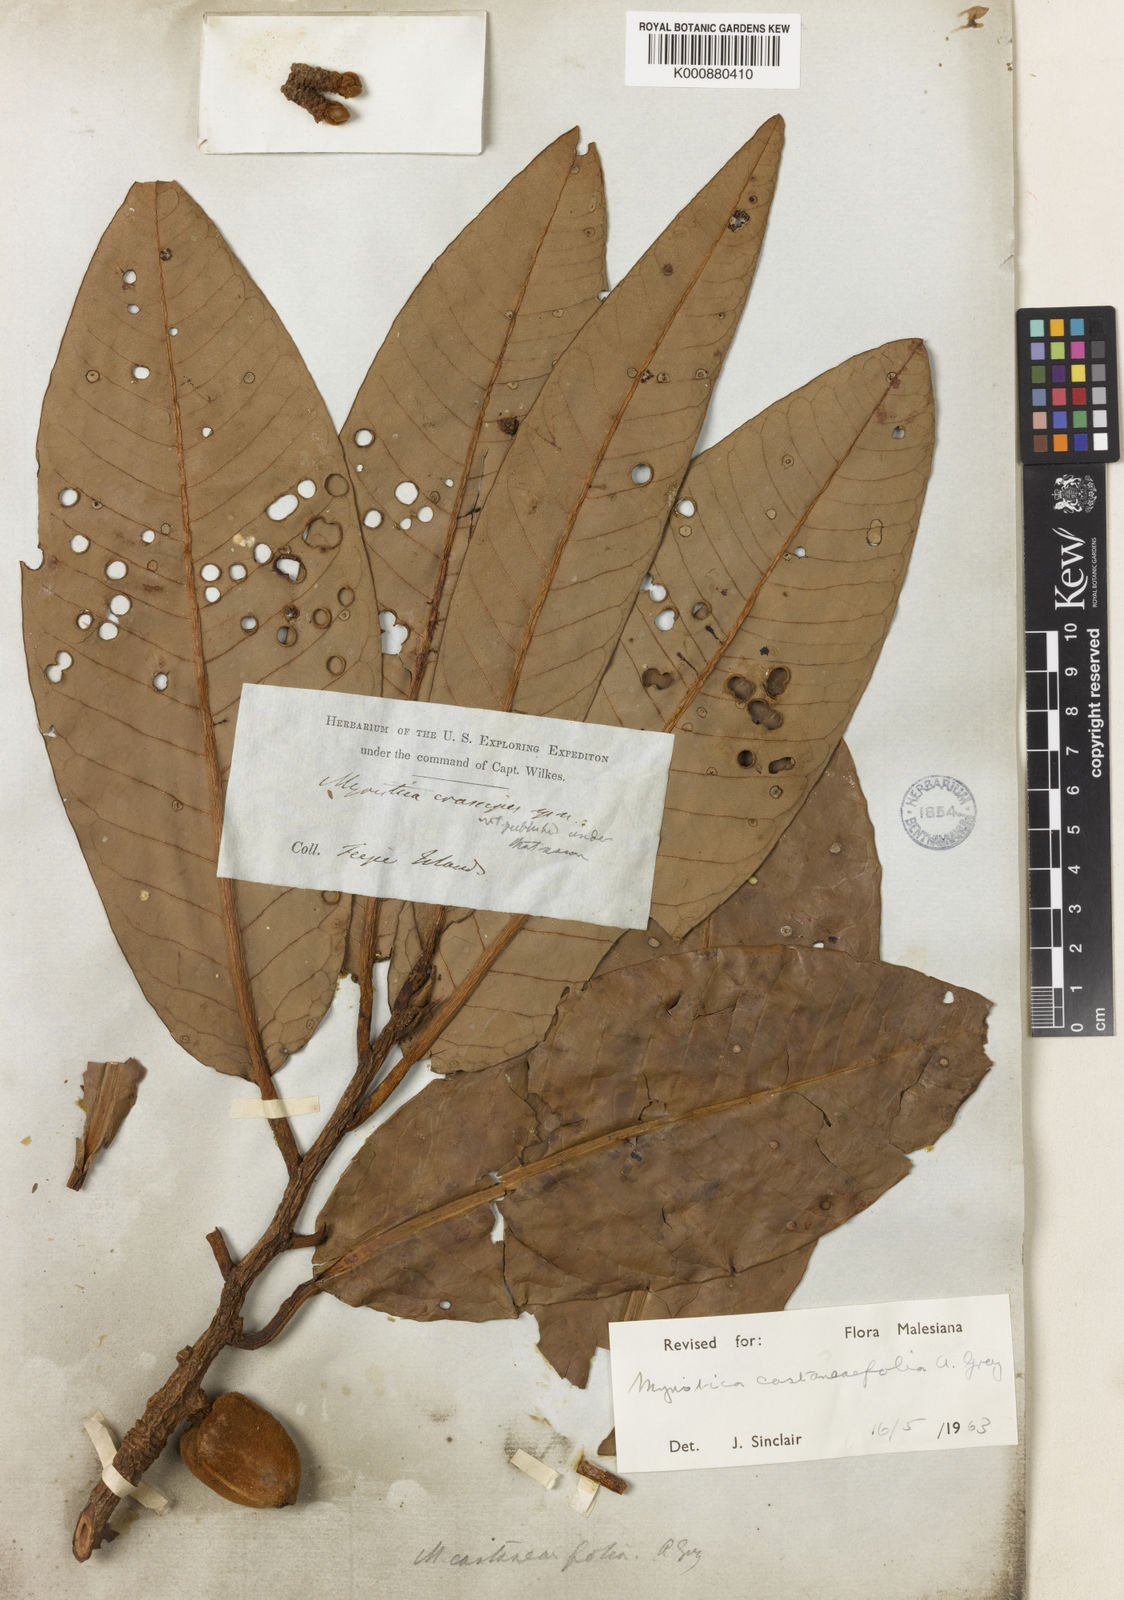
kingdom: Plantae
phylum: Tracheophyta
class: Magnoliopsida
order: Magnoliales
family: Myristicaceae
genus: Myristica
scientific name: Myristica castaneifolia
